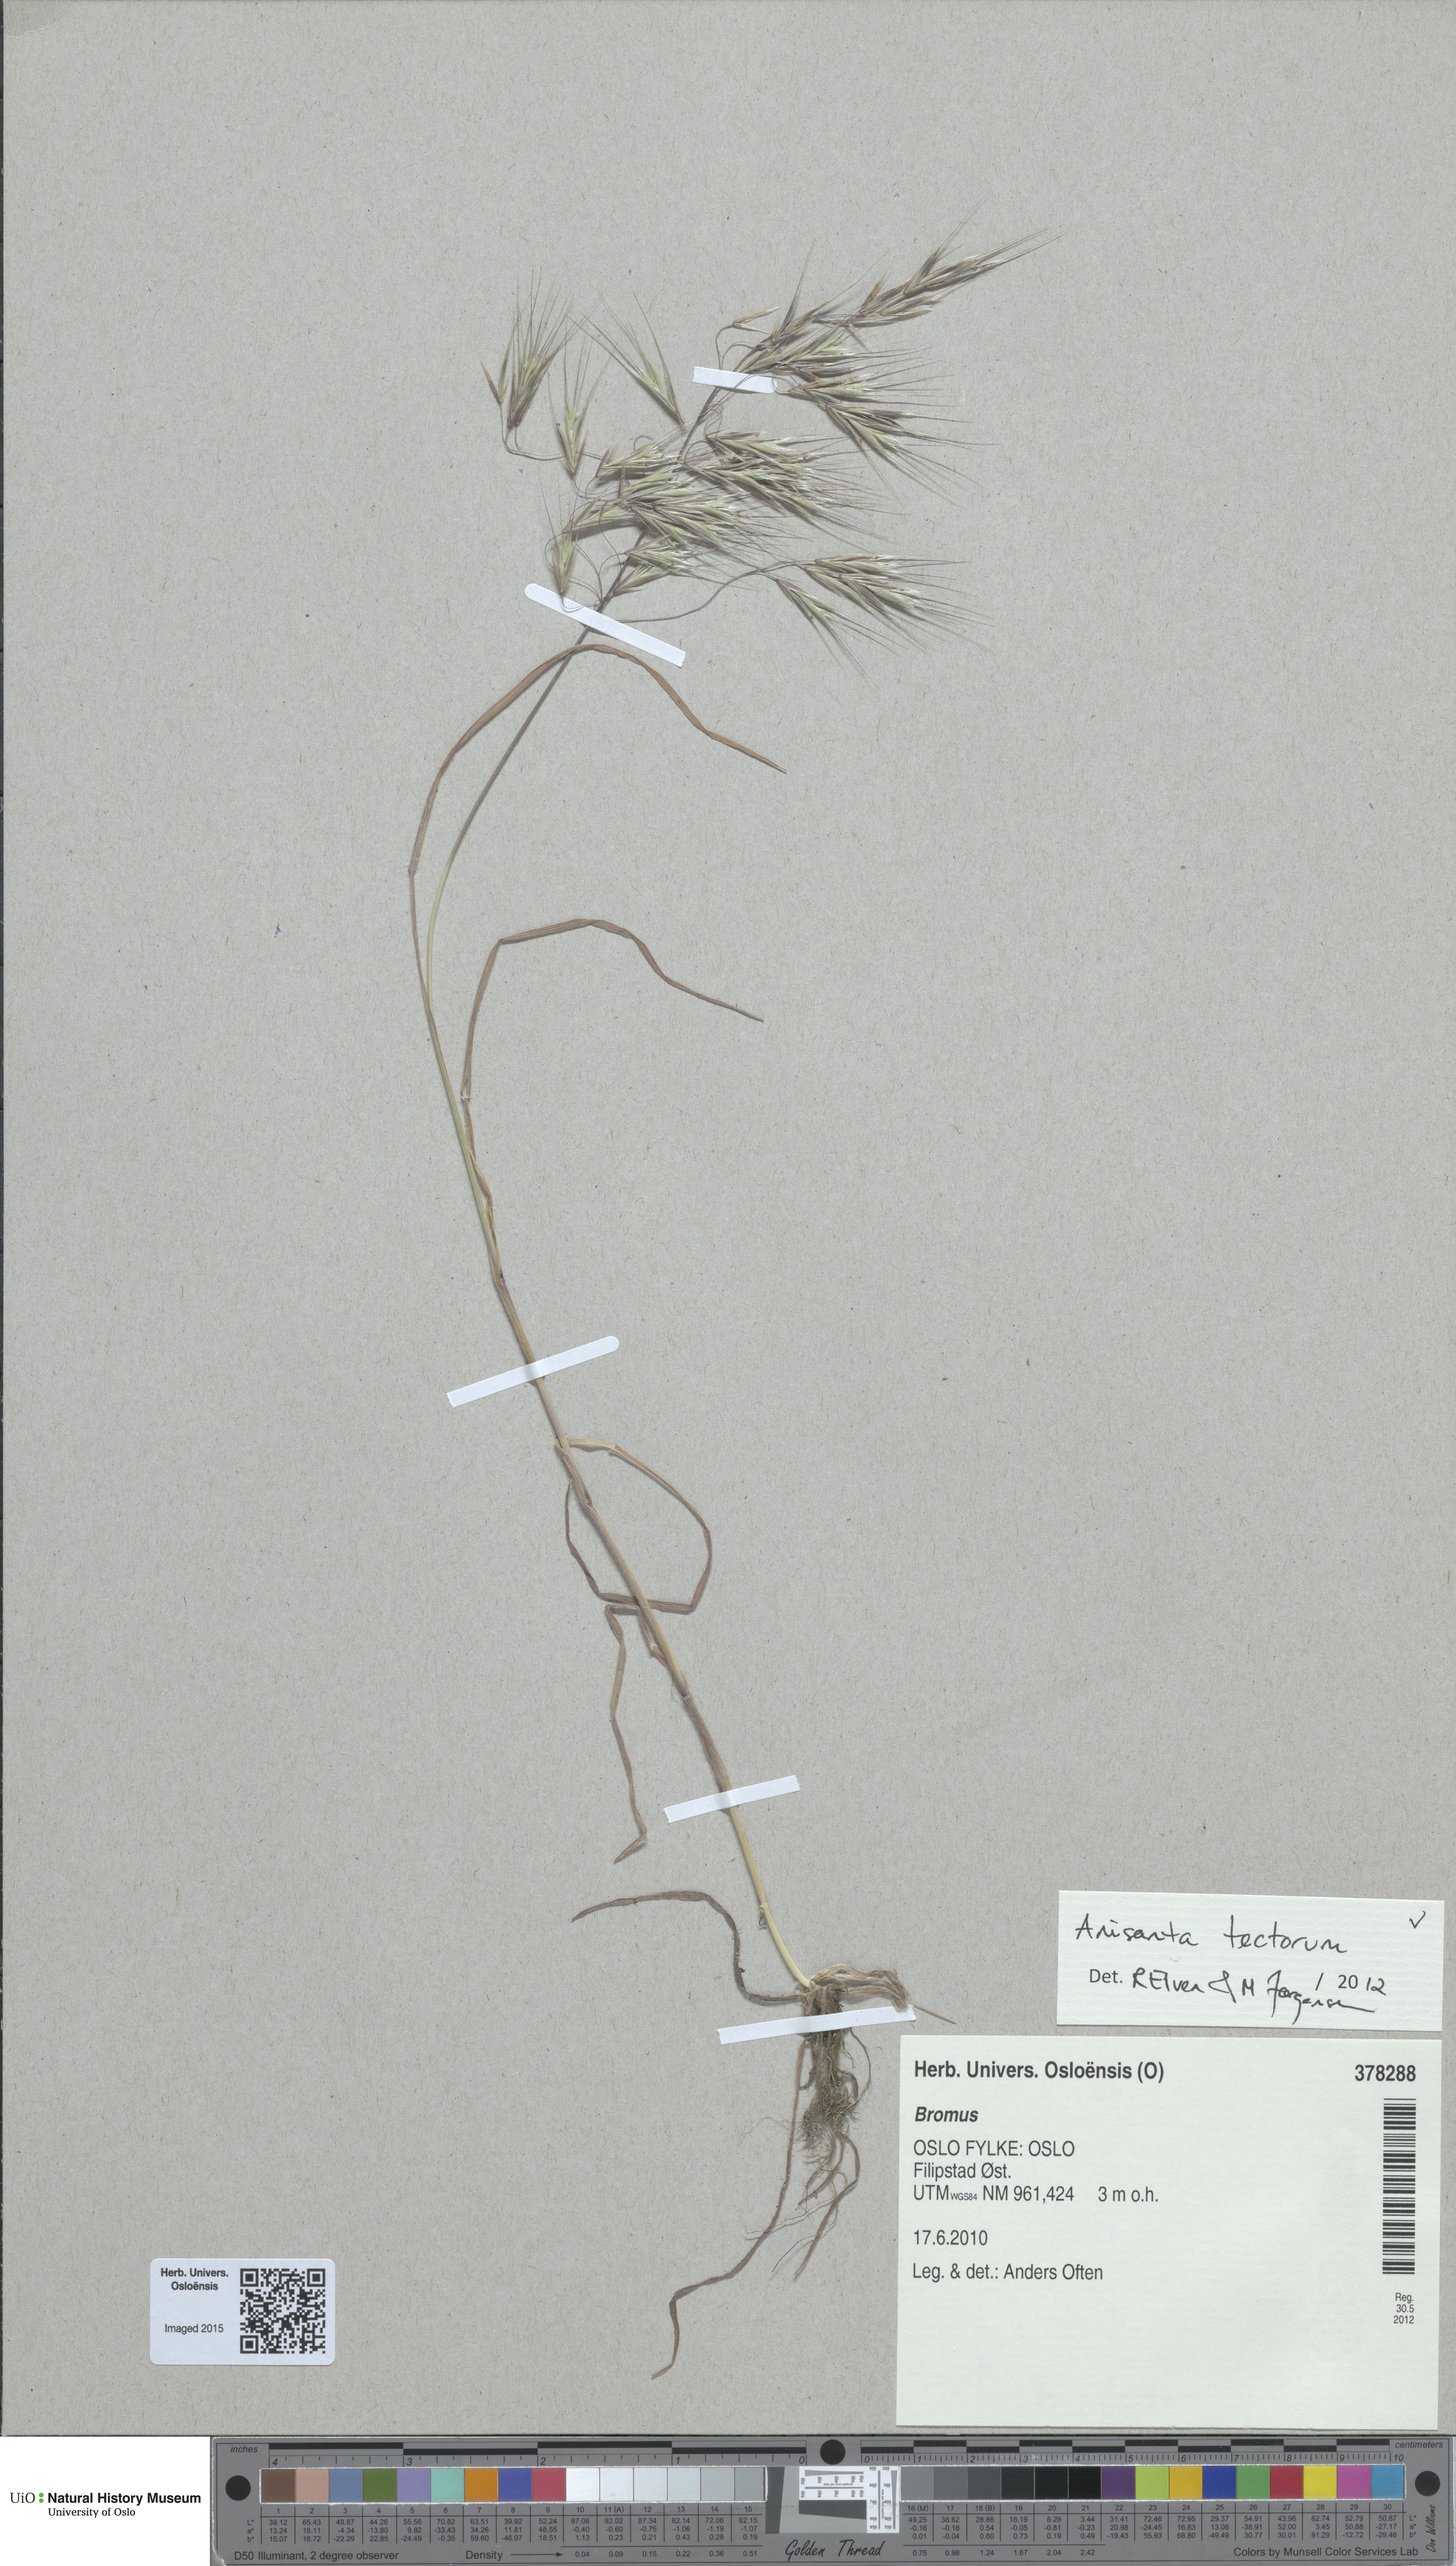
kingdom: Plantae
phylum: Tracheophyta
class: Liliopsida
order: Poales
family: Poaceae
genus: Bromus
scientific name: Bromus tectorum
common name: Cheatgrass
